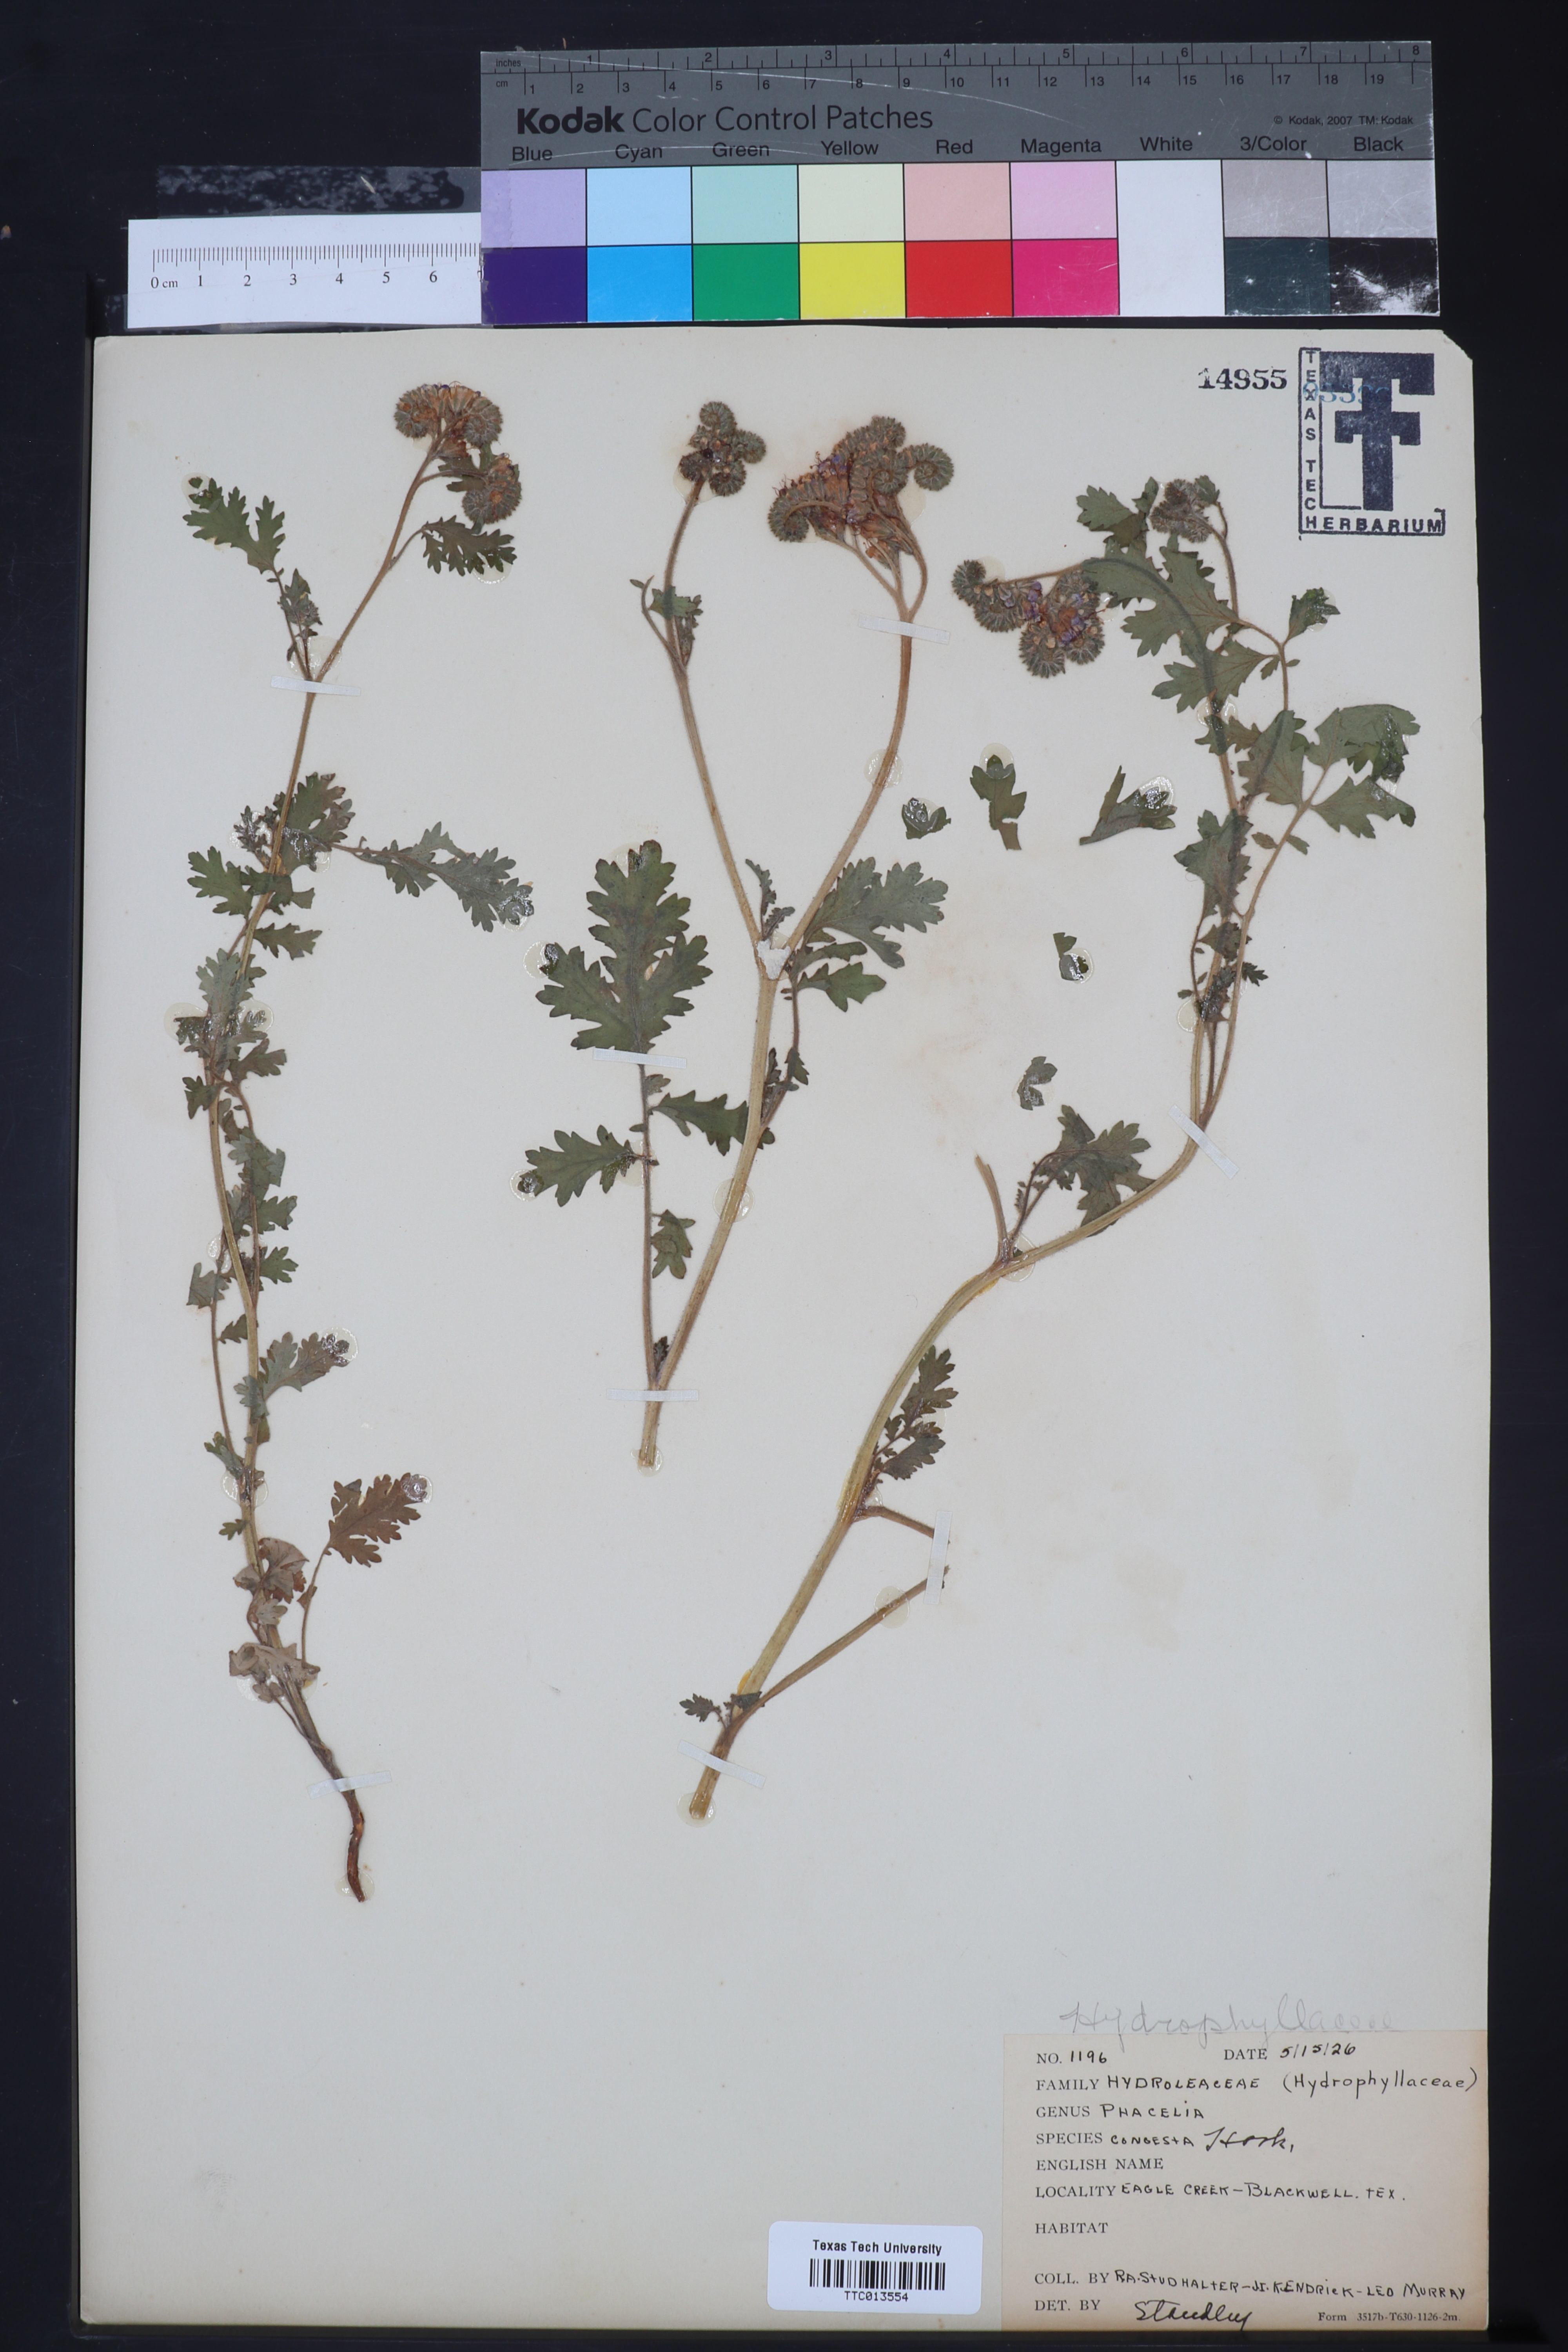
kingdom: Plantae
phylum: Tracheophyta
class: Magnoliopsida
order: Boraginales
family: Hydrophyllaceae
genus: Phacelia
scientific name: Phacelia congesta
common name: Blue curls
